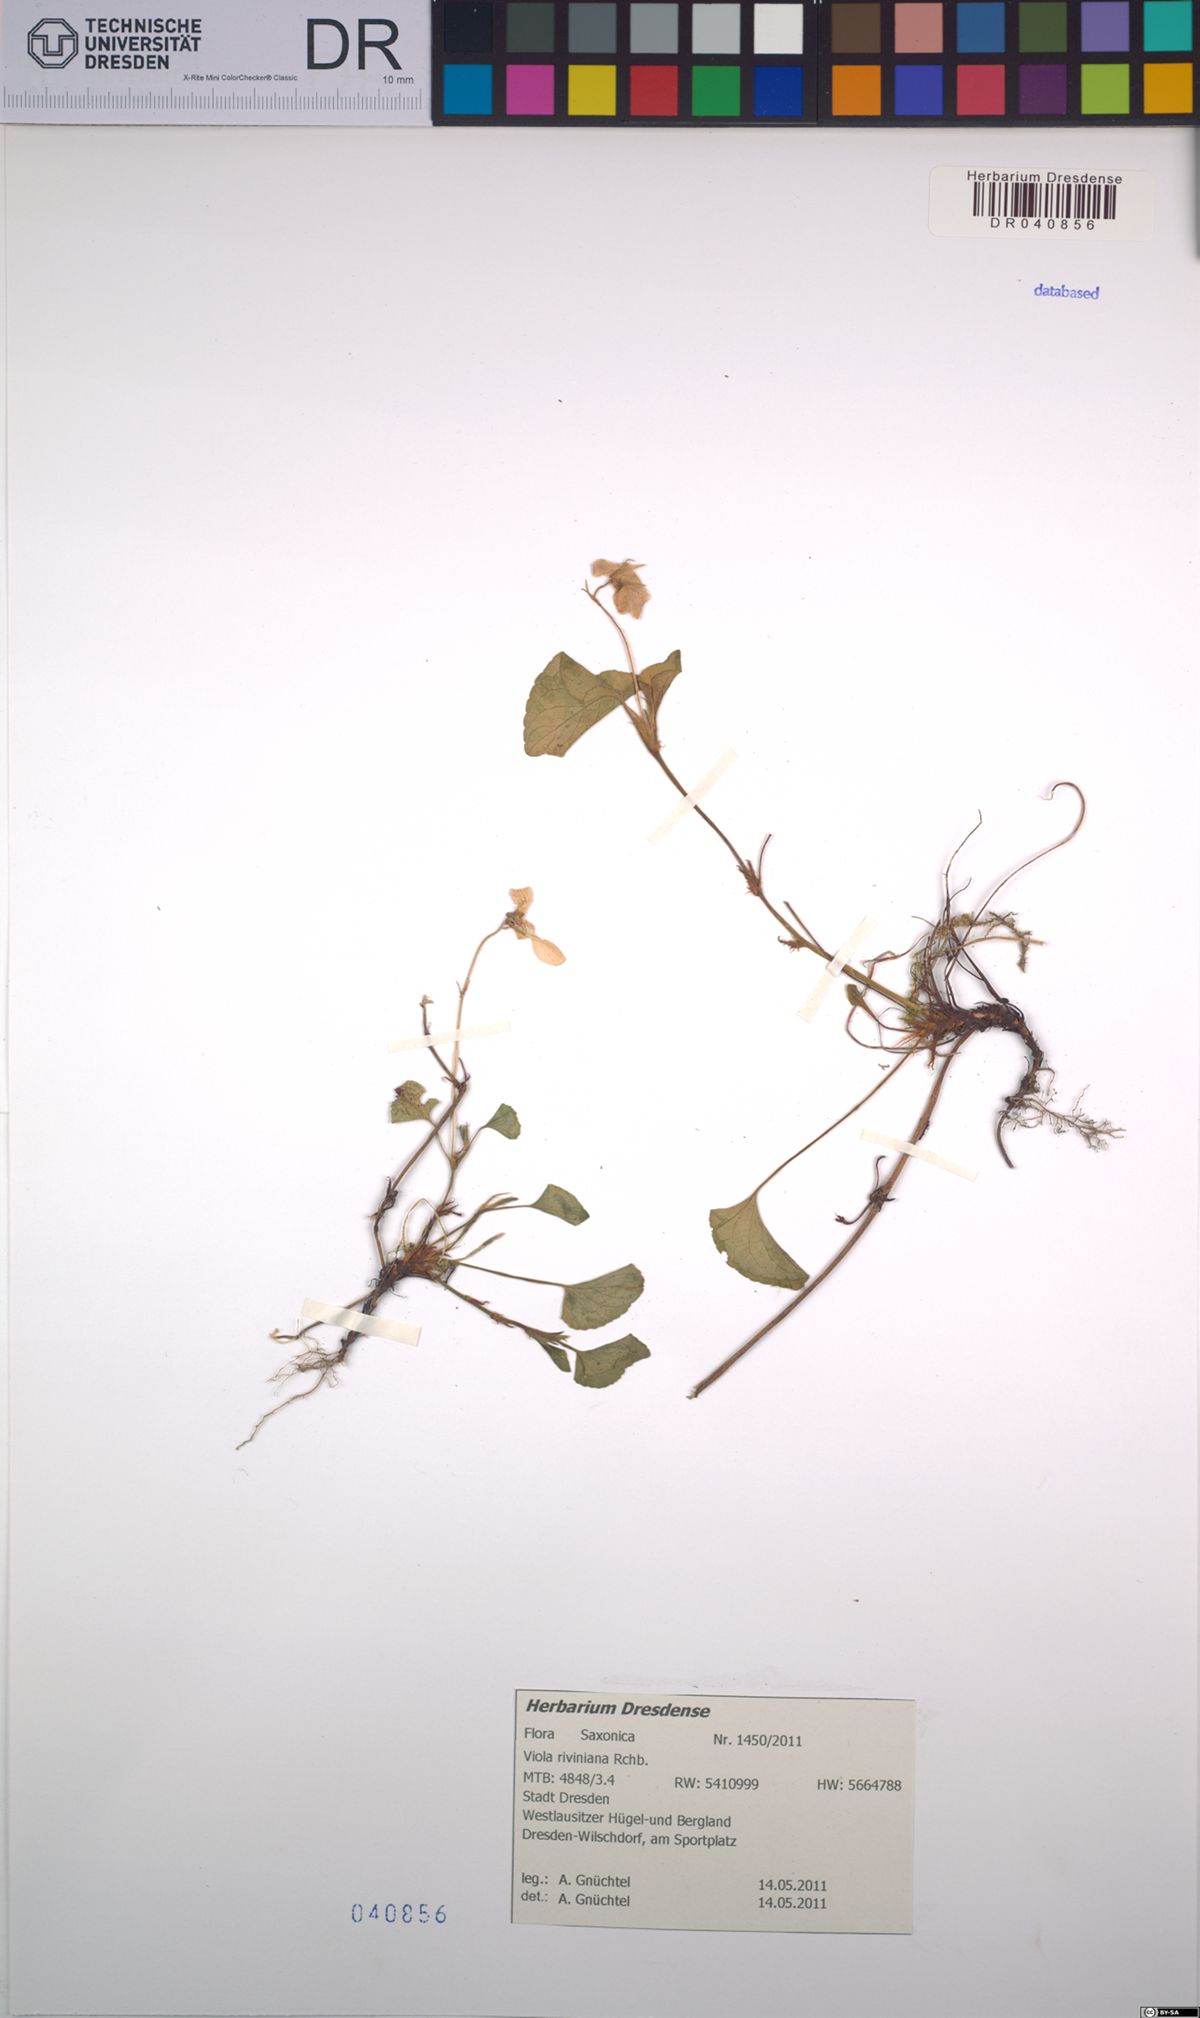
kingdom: Plantae
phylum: Tracheophyta
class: Magnoliopsida
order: Malpighiales
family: Violaceae
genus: Viola
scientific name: Viola riviniana
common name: Common dog-violet
